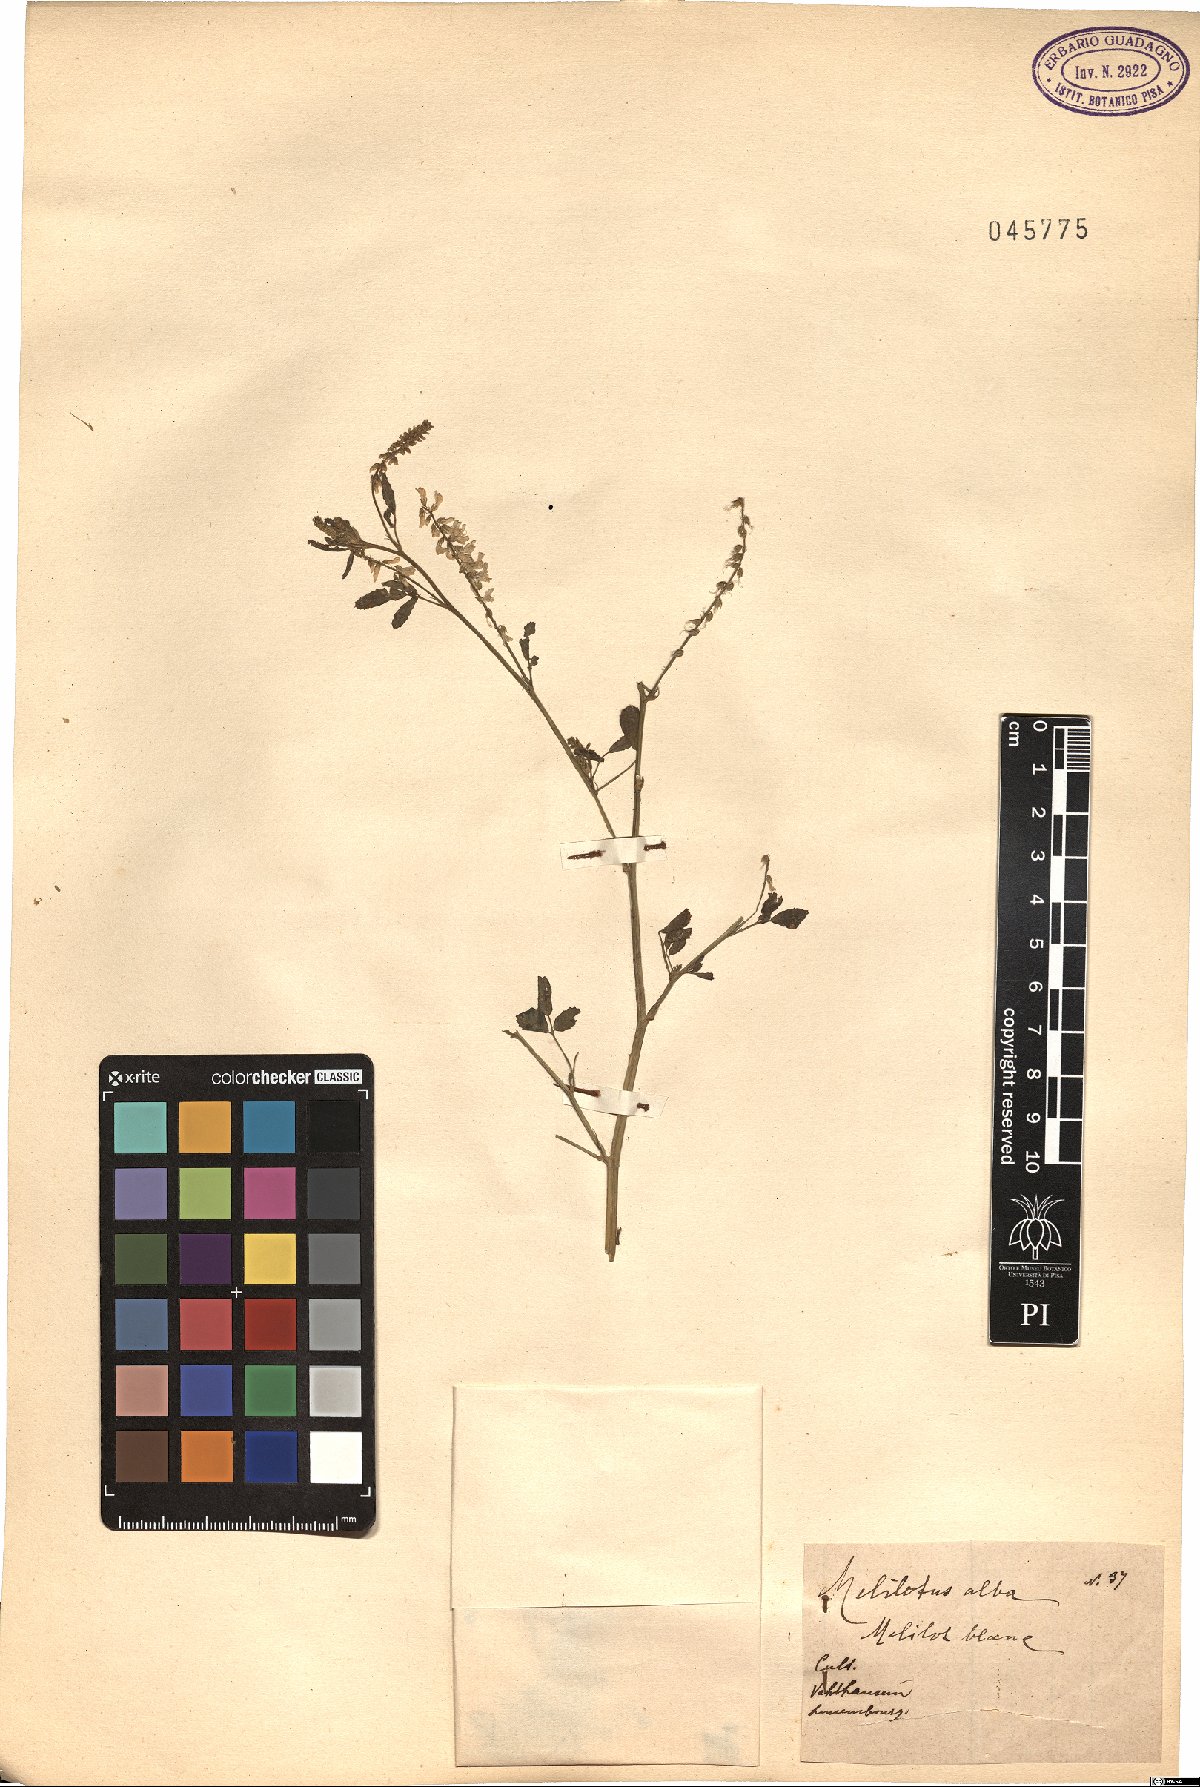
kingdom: Plantae
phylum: Tracheophyta
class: Magnoliopsida
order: Fabales
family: Fabaceae
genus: Melilotus
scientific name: Melilotus albus
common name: White melilot
